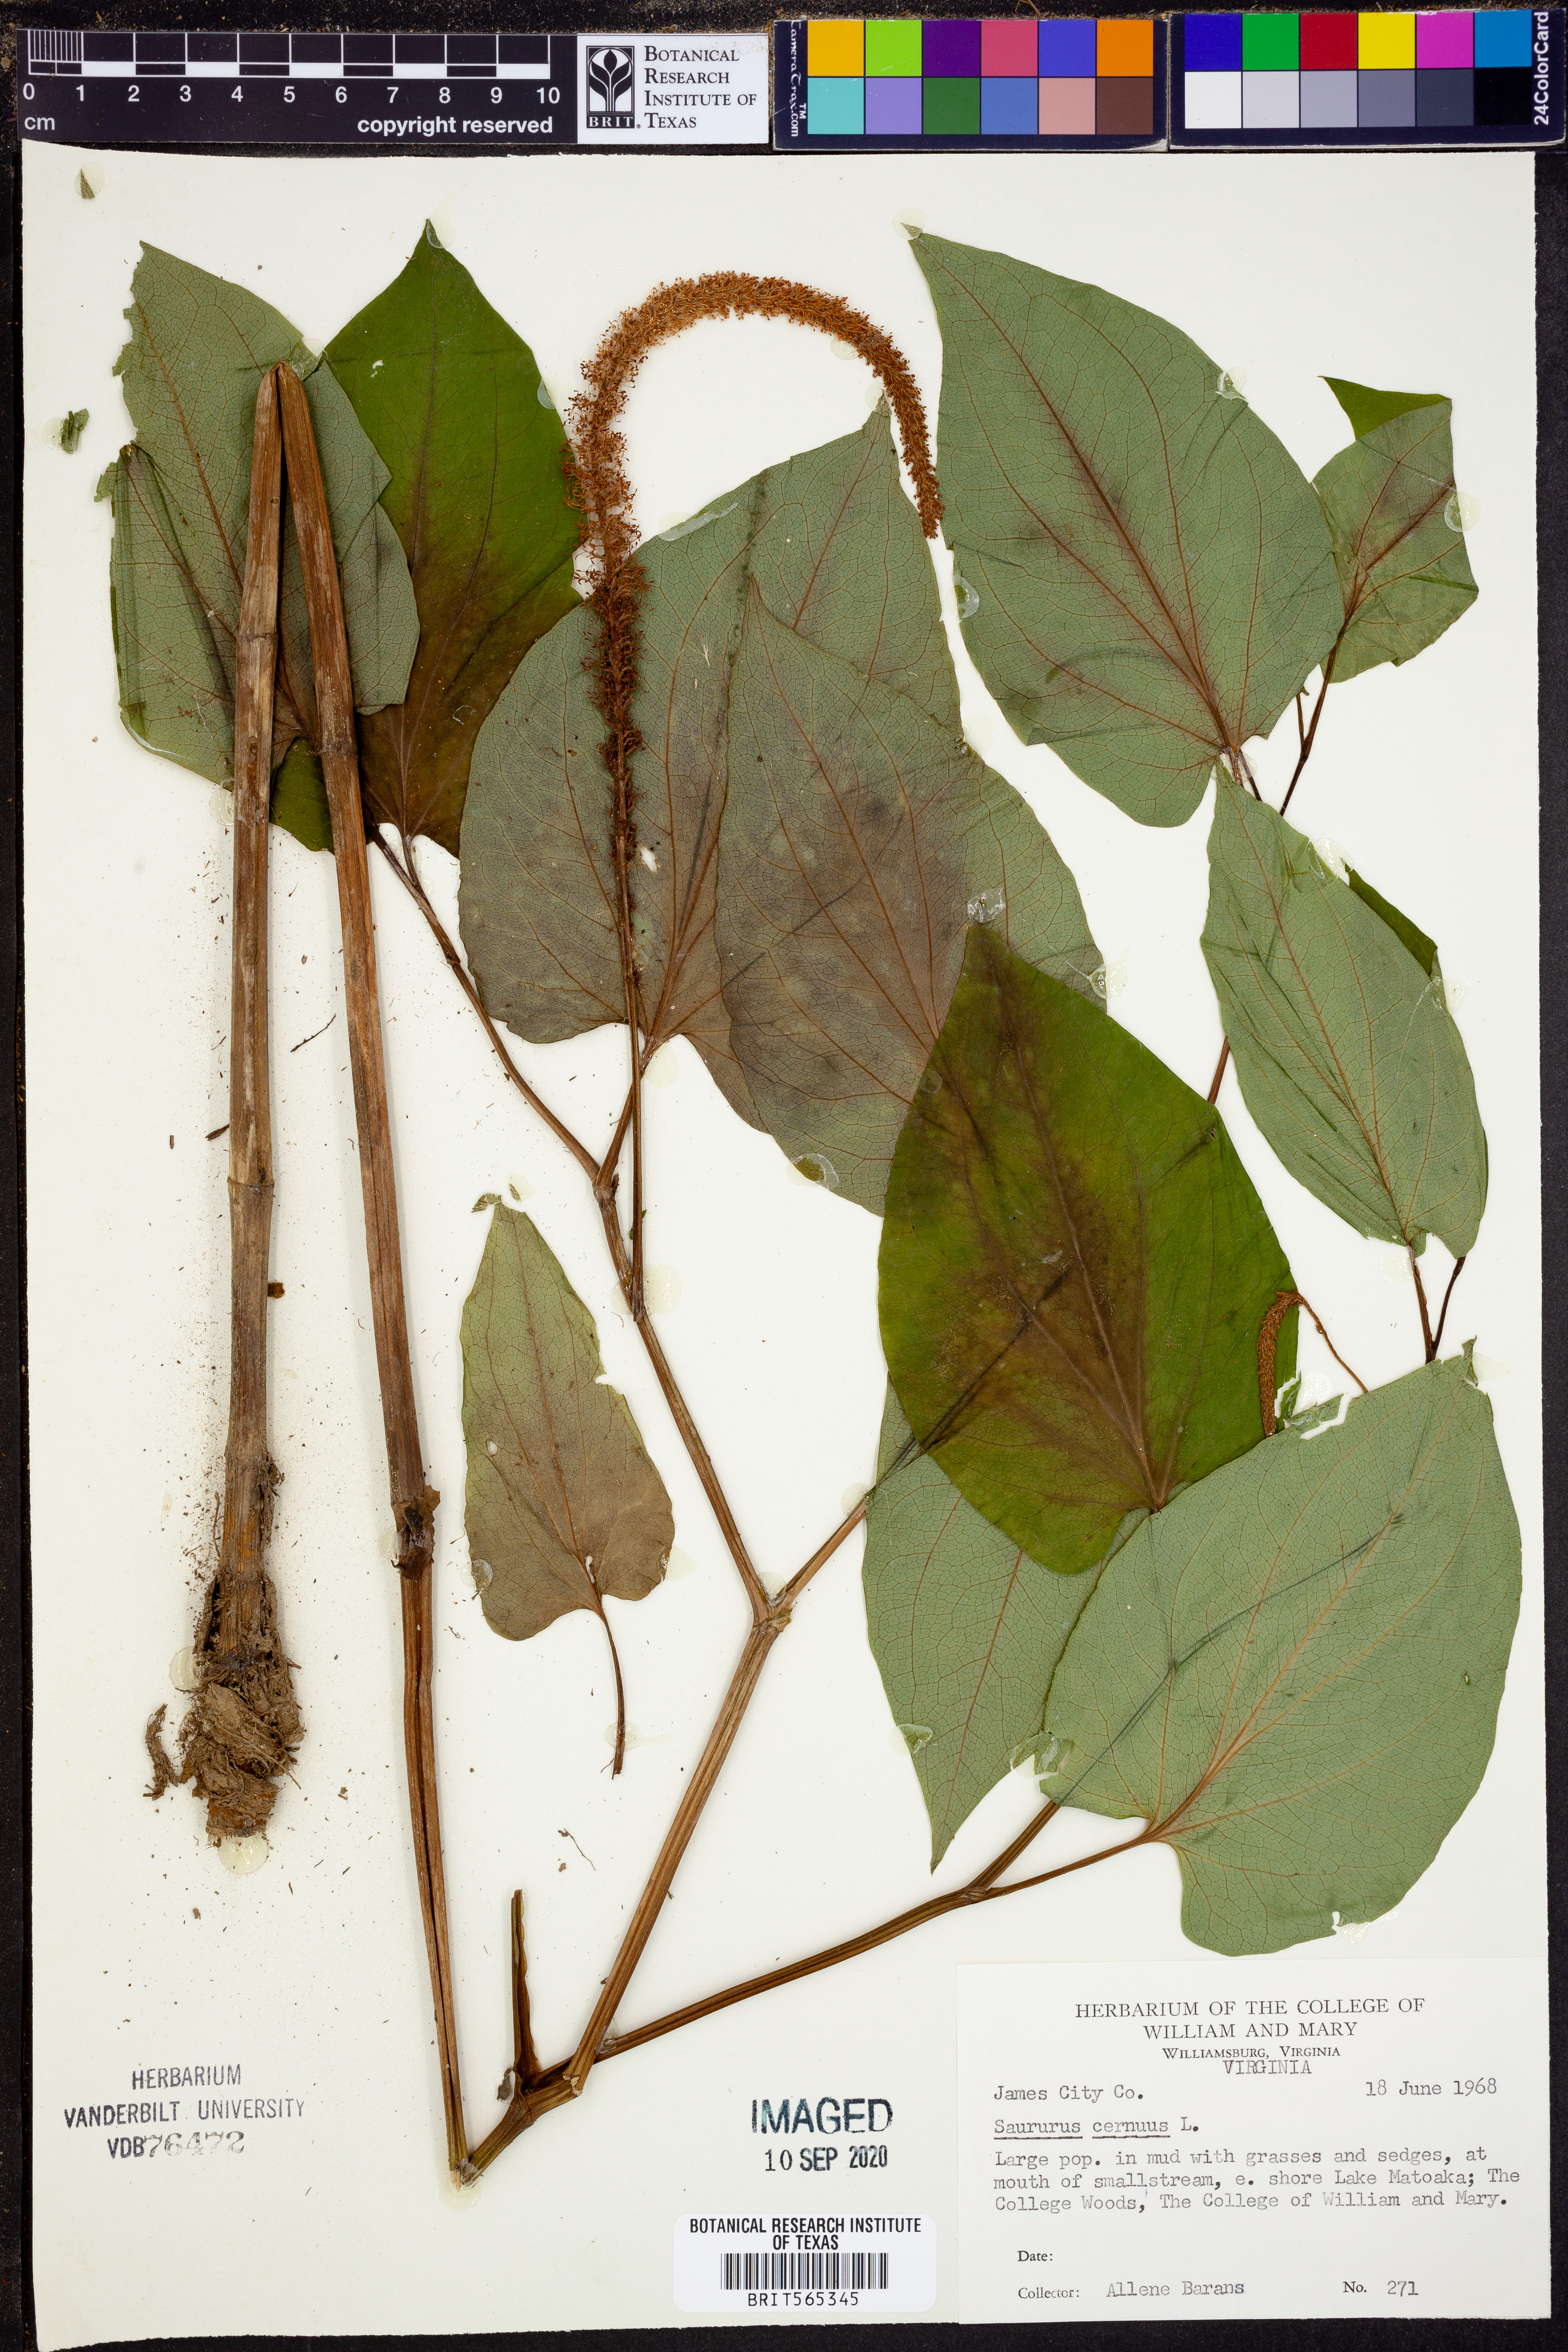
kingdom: Plantae
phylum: Tracheophyta
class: Magnoliopsida
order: Piperales
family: Saururaceae
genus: Saururus
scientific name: Saururus cernuus
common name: Lizard's-tail
